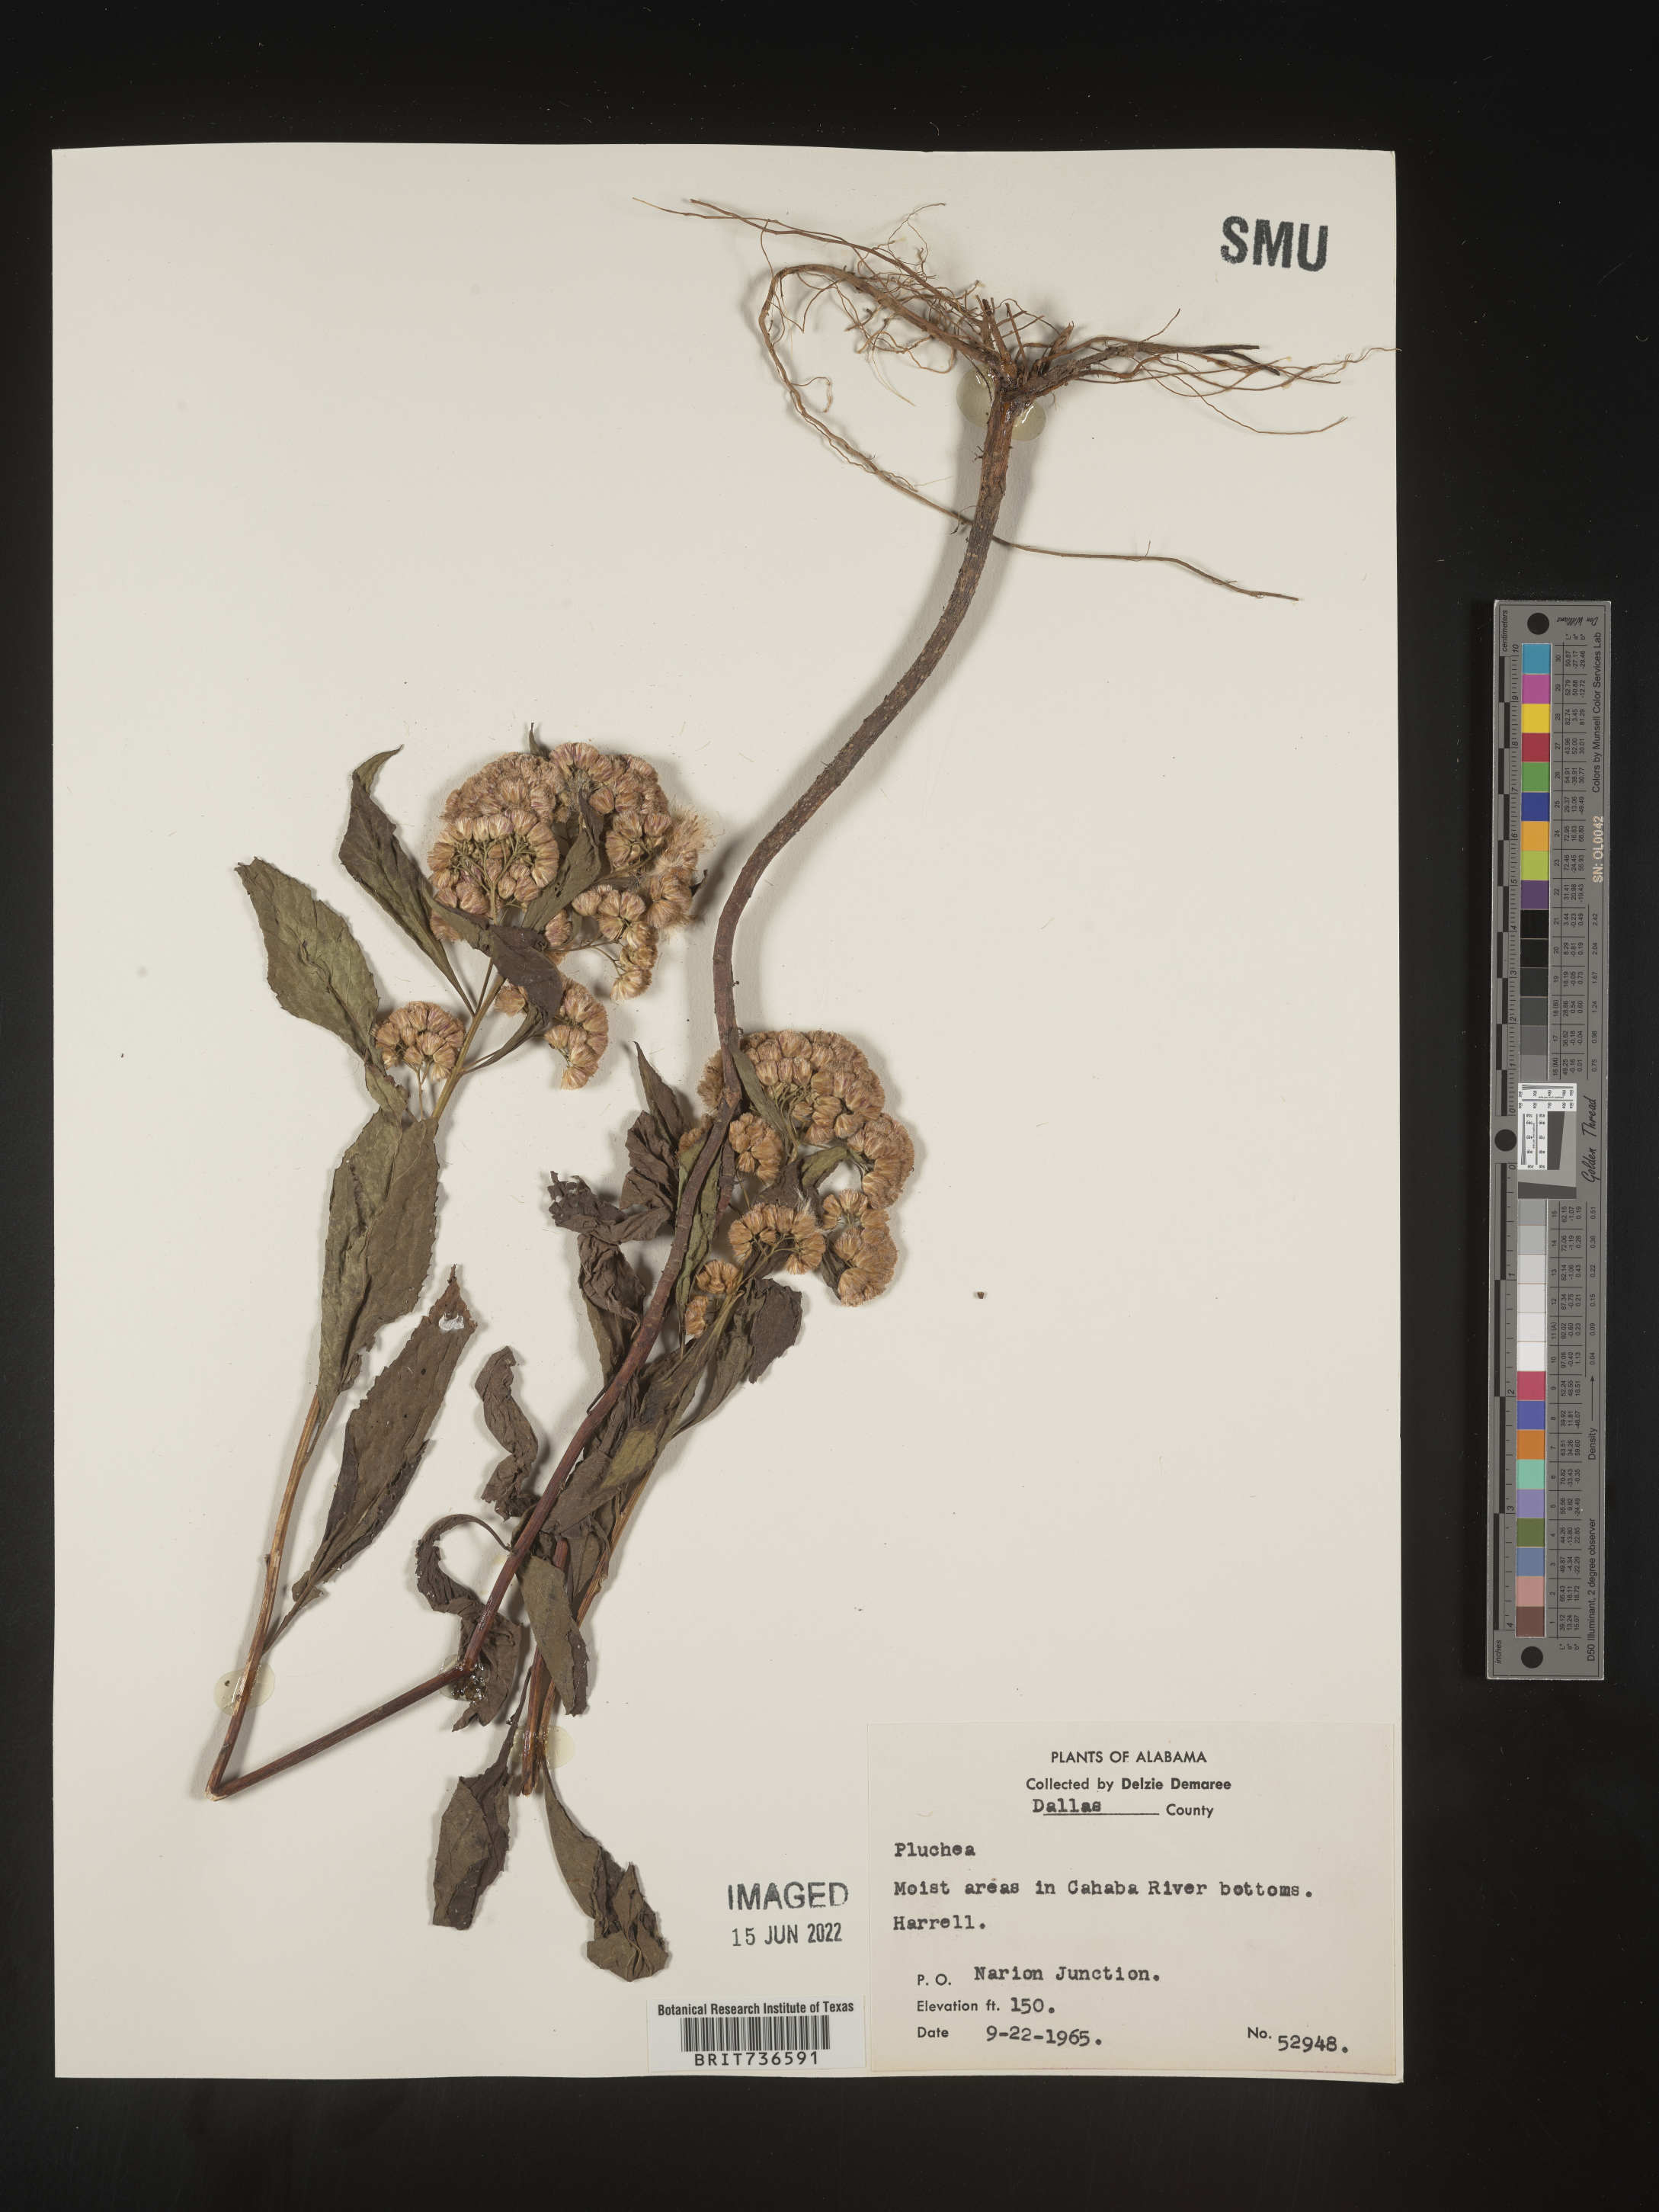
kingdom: Plantae
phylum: Tracheophyta
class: Magnoliopsida
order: Asterales
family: Asteraceae
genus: Pluchea
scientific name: Pluchea camphorata
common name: Camphor pluchea
